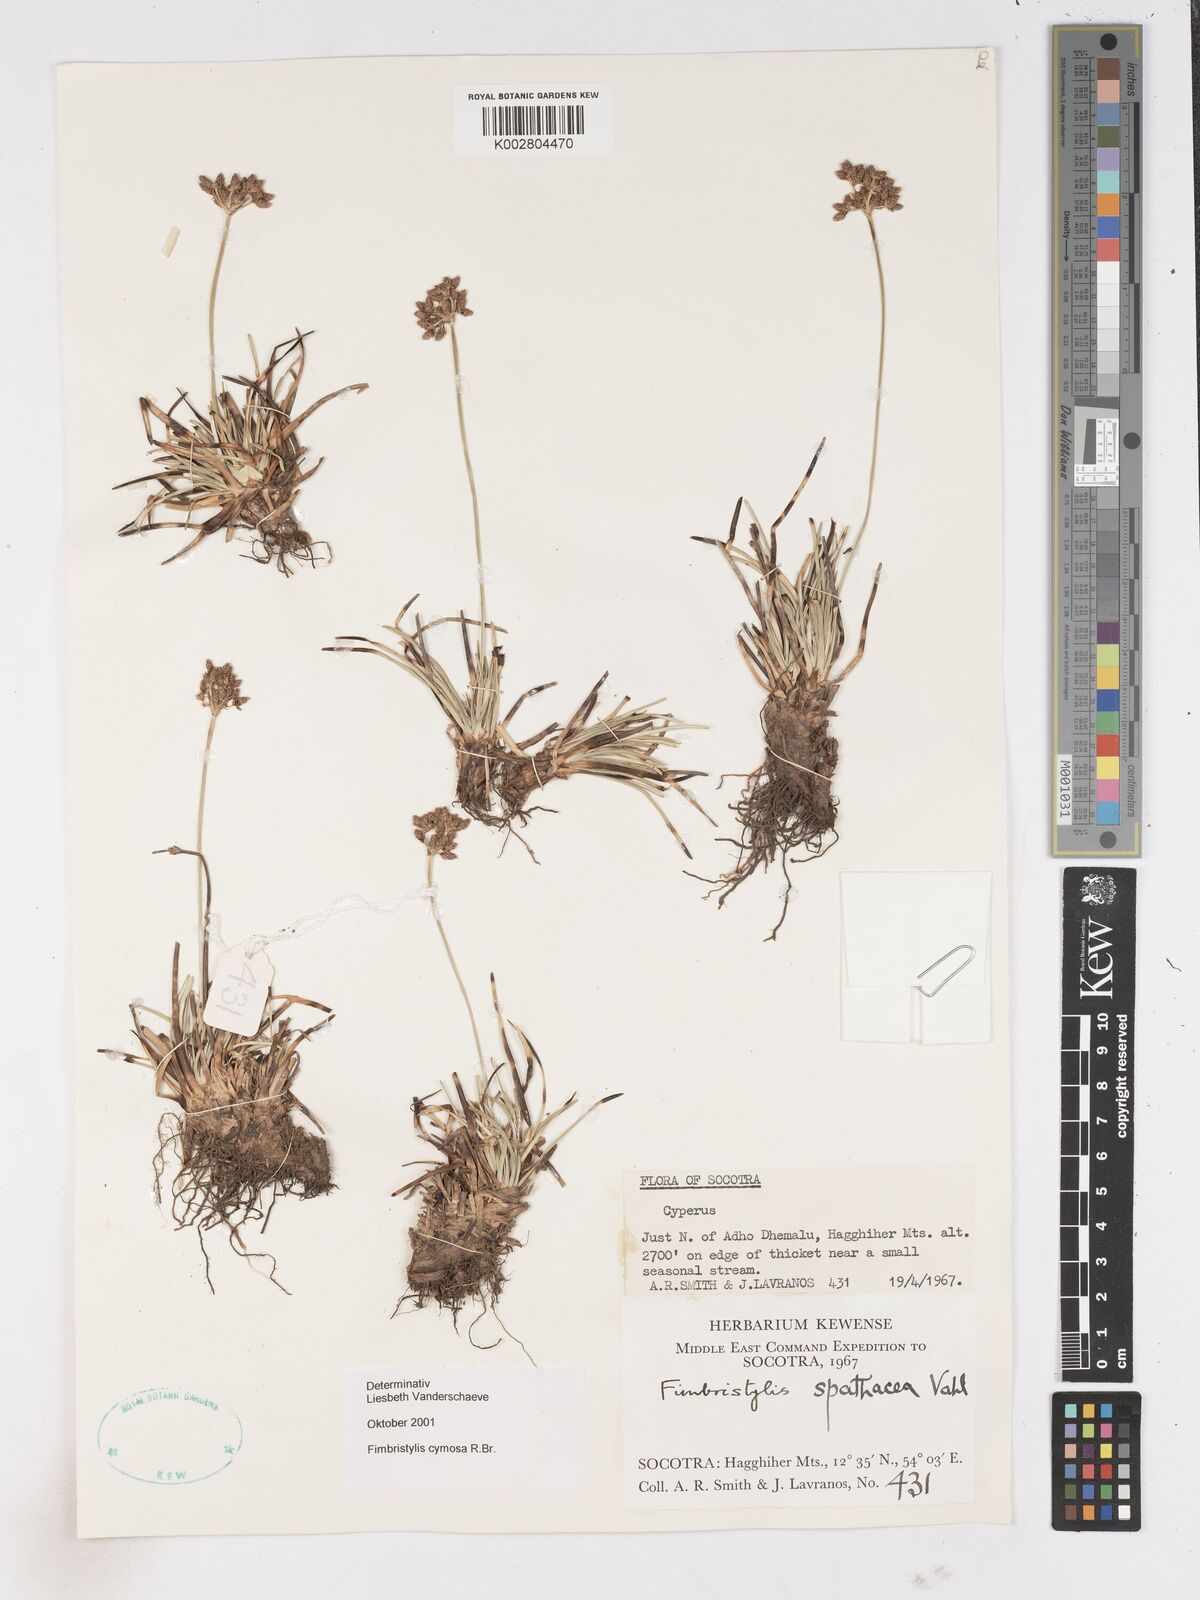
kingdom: Plantae
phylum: Tracheophyta
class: Liliopsida
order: Poales
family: Cyperaceae
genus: Fimbristylis
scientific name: Fimbristylis cymosa
